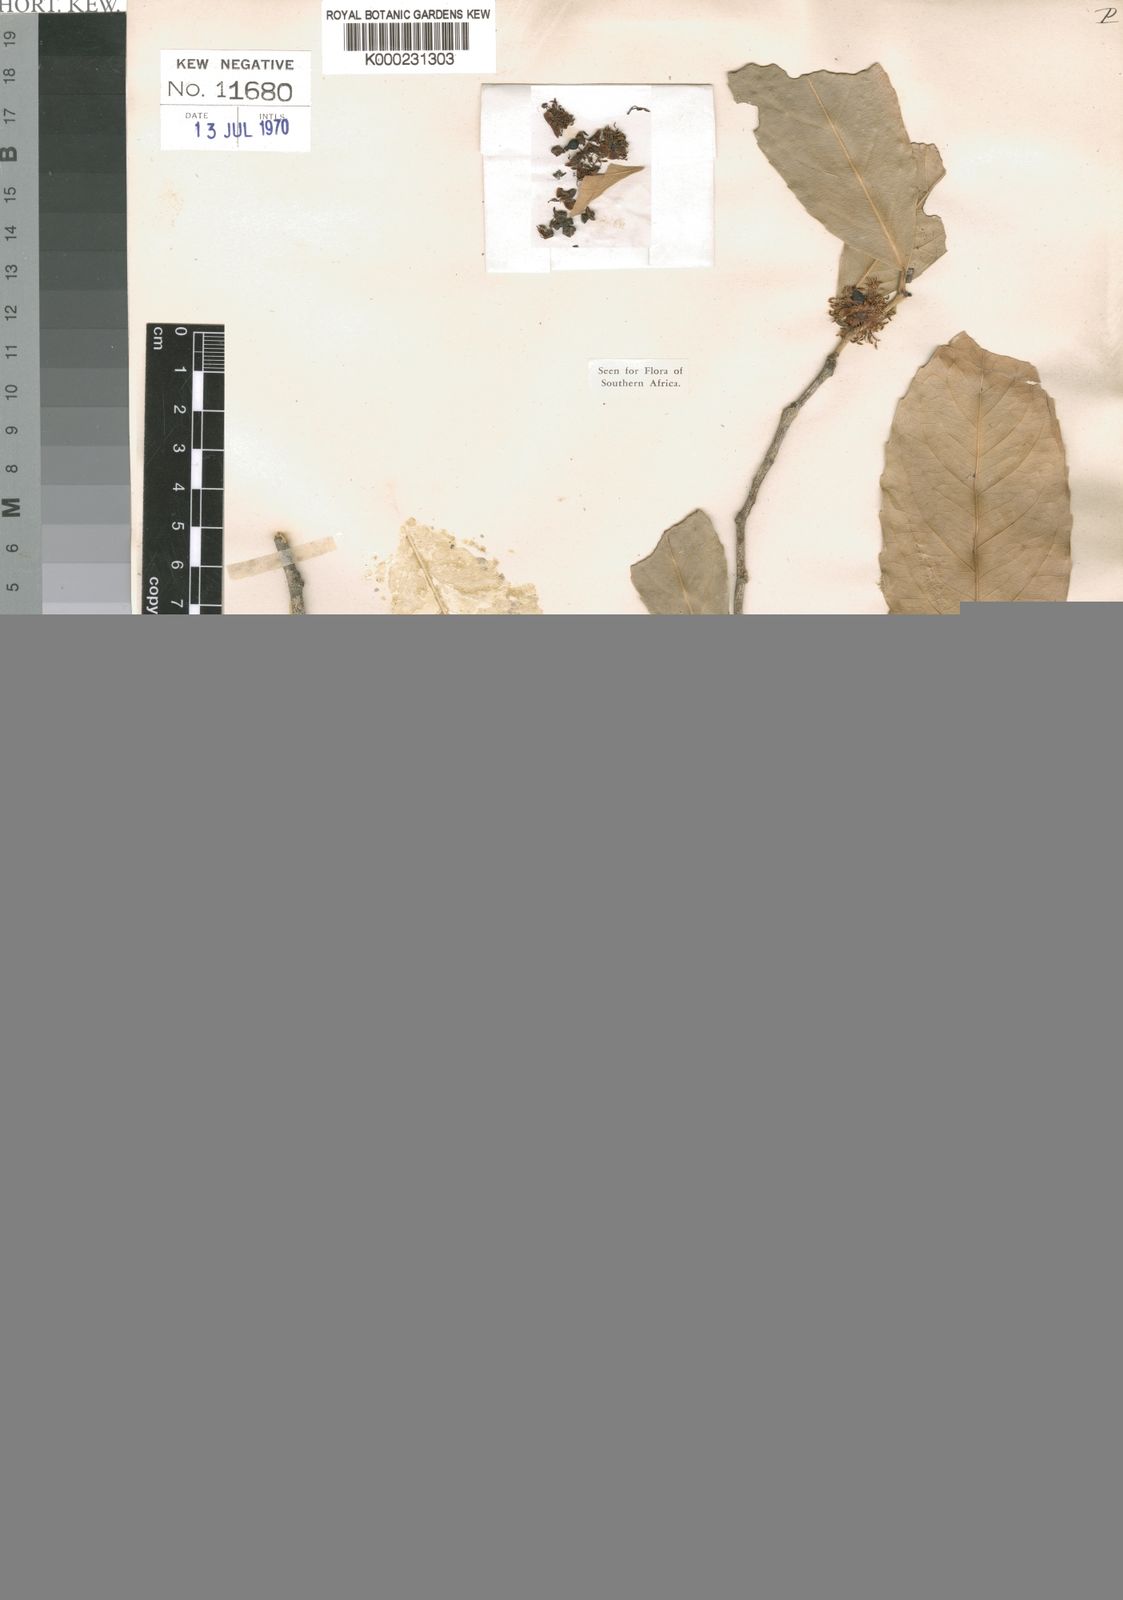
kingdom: Plantae
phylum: Tracheophyta
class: Magnoliopsida
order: Malpighiales
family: Achariaceae
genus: Rawsonia
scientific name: Rawsonia lucida
